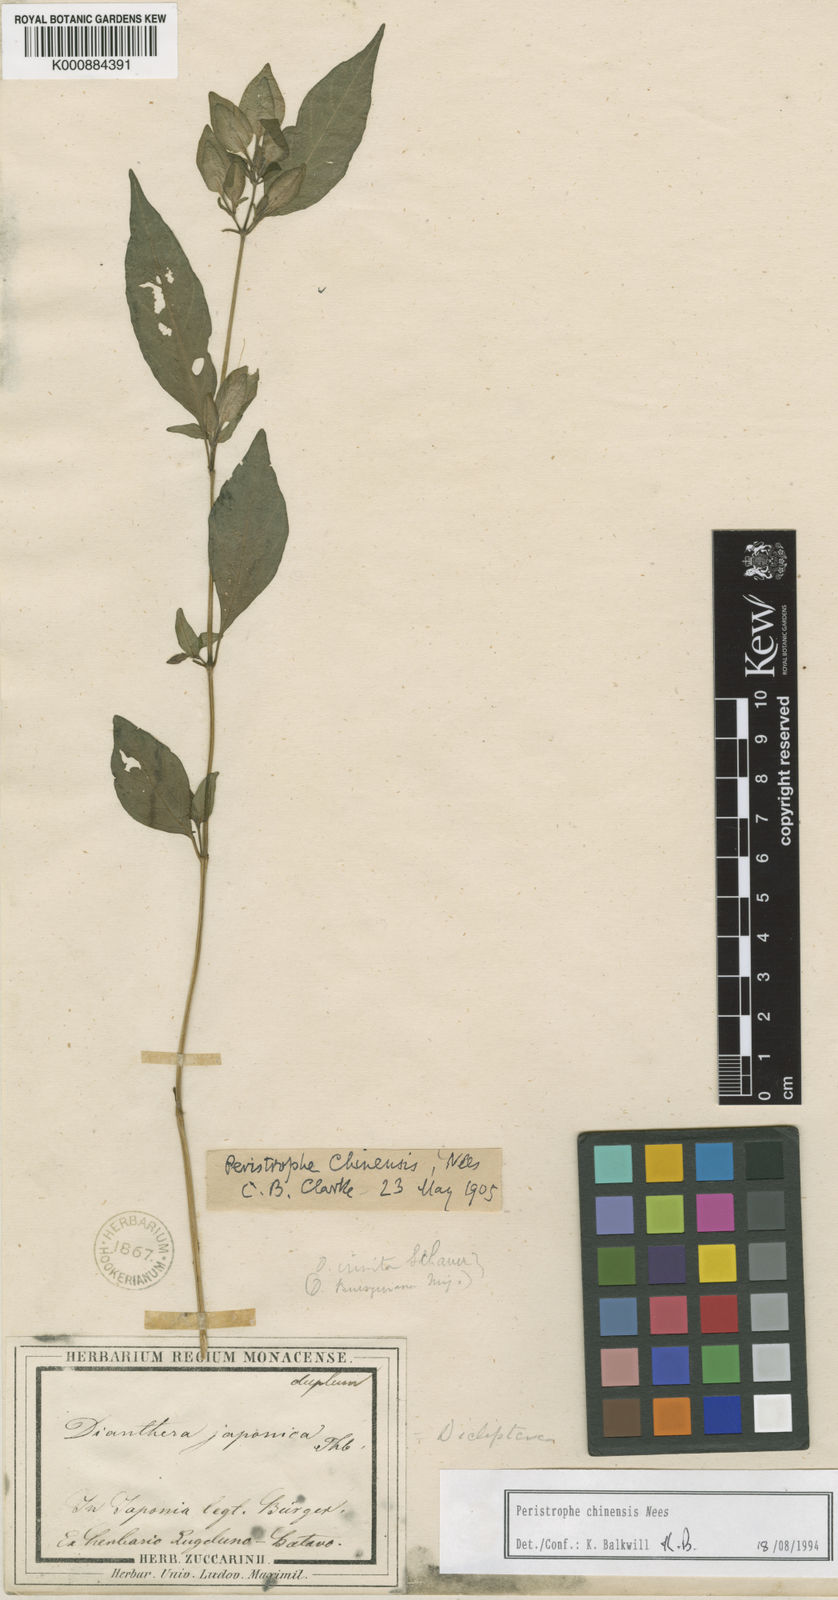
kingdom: Plantae
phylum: Tracheophyta
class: Magnoliopsida
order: Lamiales
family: Acanthaceae
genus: Dicliptera
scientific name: Dicliptera japonica
